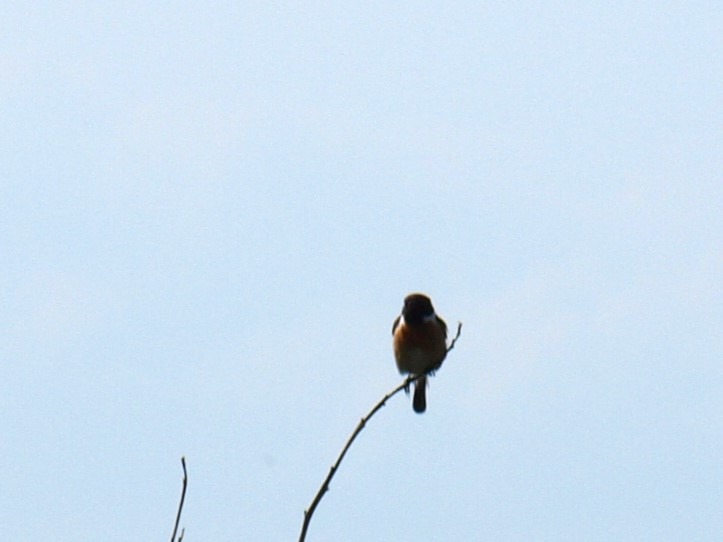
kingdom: Animalia
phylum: Chordata
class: Aves
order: Passeriformes
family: Muscicapidae
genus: Saxicola
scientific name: Saxicola rubicola
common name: Sortstrubet bynkefugl
